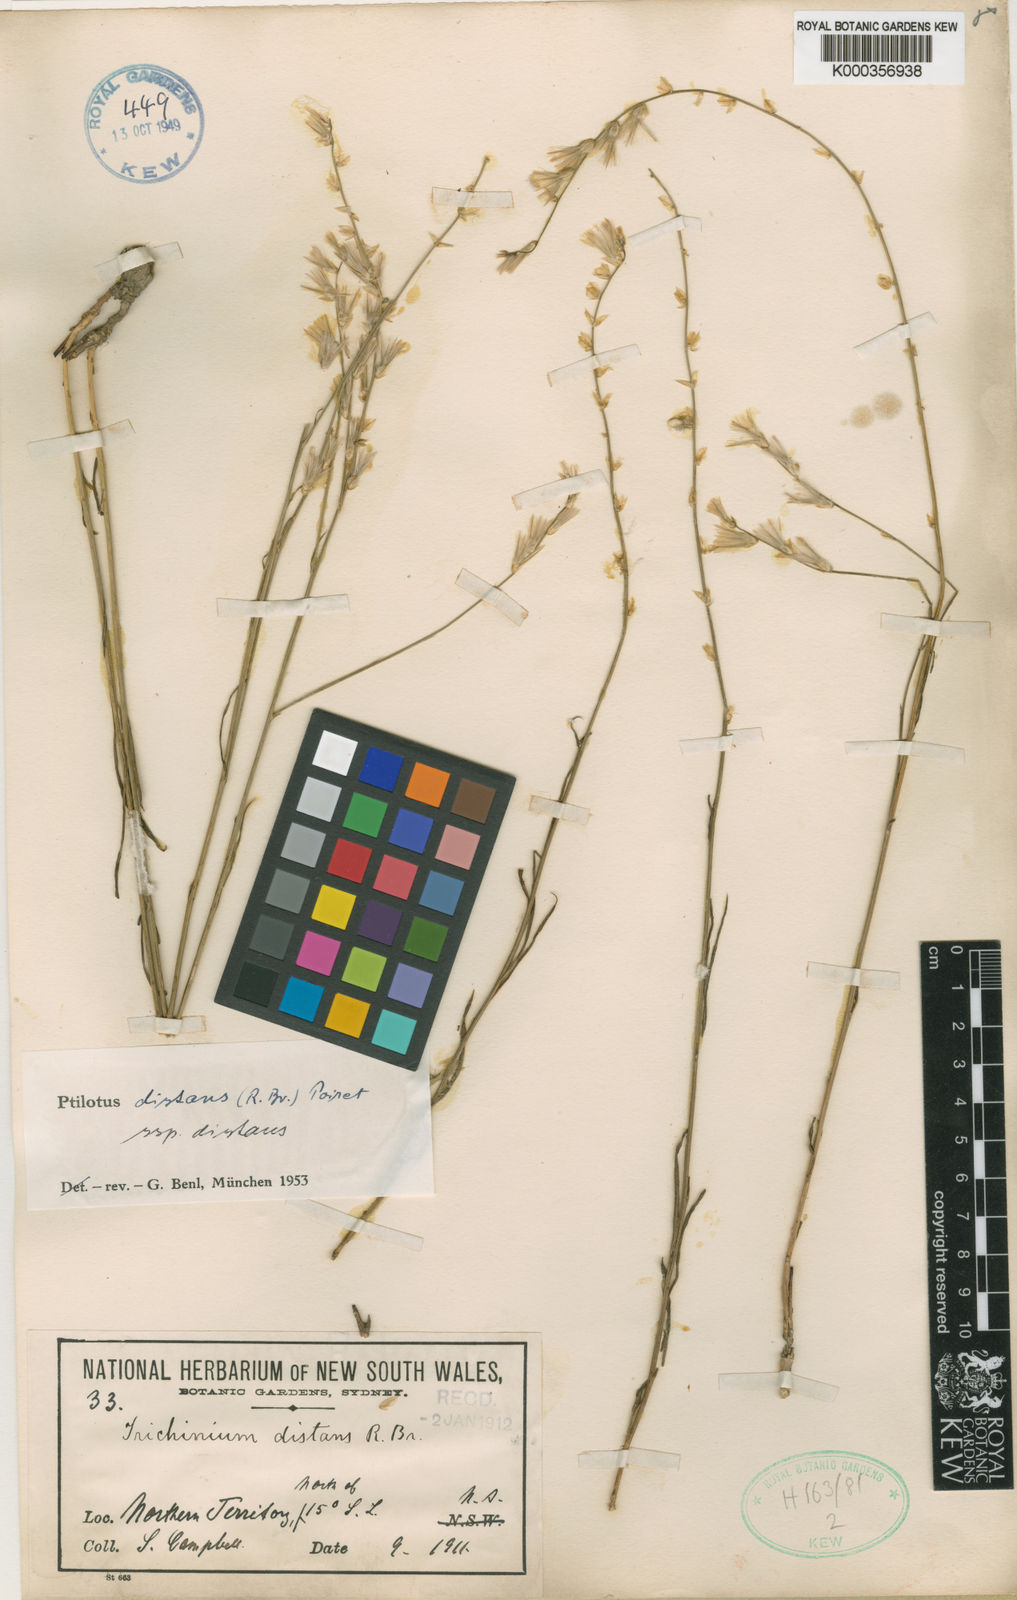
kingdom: Plantae
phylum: Tracheophyta
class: Magnoliopsida
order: Caryophyllales
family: Amaranthaceae
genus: Ptilotus
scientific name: Ptilotus
